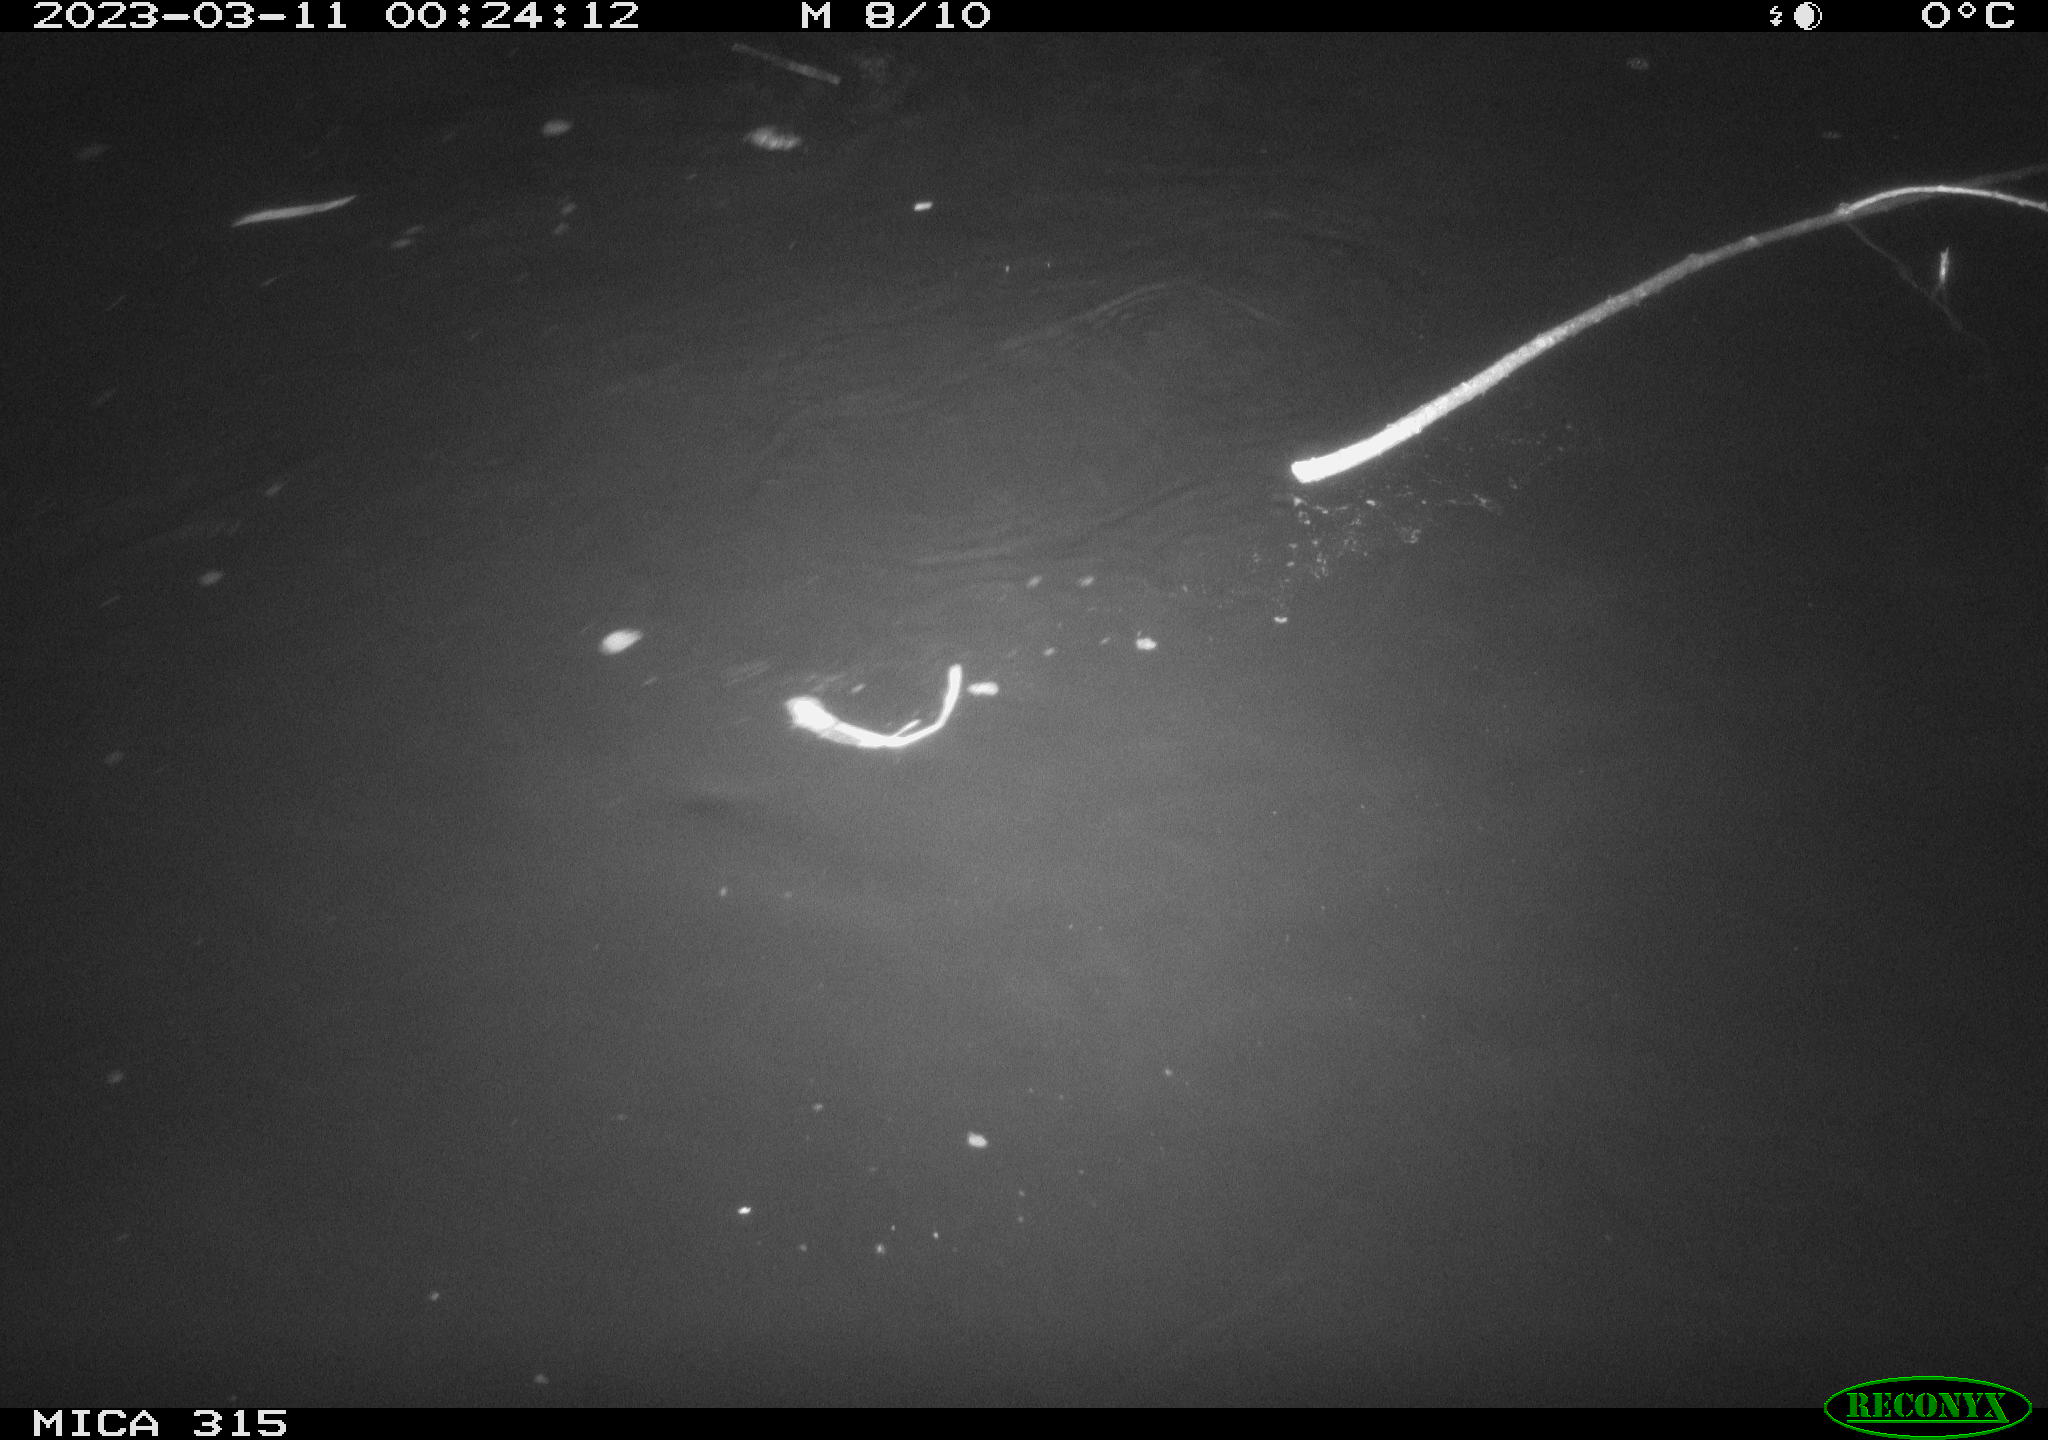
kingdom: Animalia
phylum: Chordata
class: Aves
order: Anseriformes
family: Anatidae
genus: Anas
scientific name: Anas
